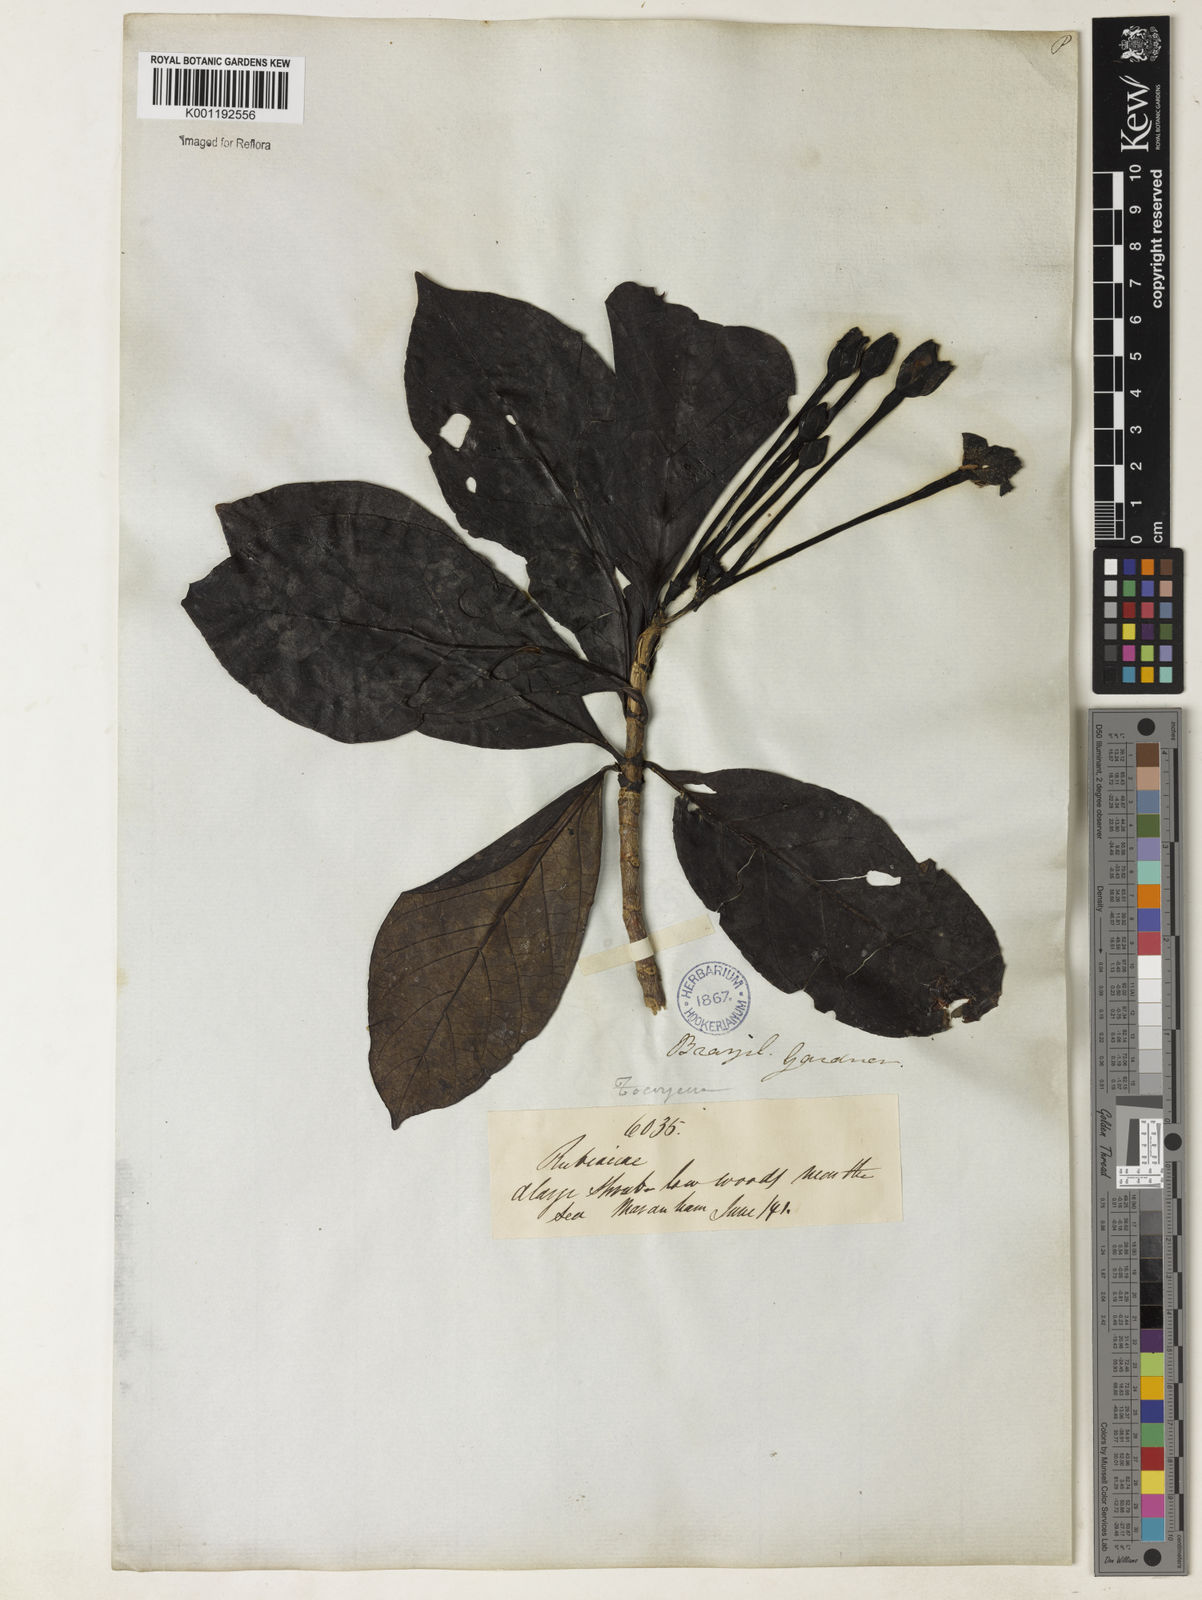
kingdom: Plantae
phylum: Tracheophyta
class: Magnoliopsida
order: Gentianales
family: Rubiaceae
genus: Tocoyena
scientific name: Tocoyena sellowiana
